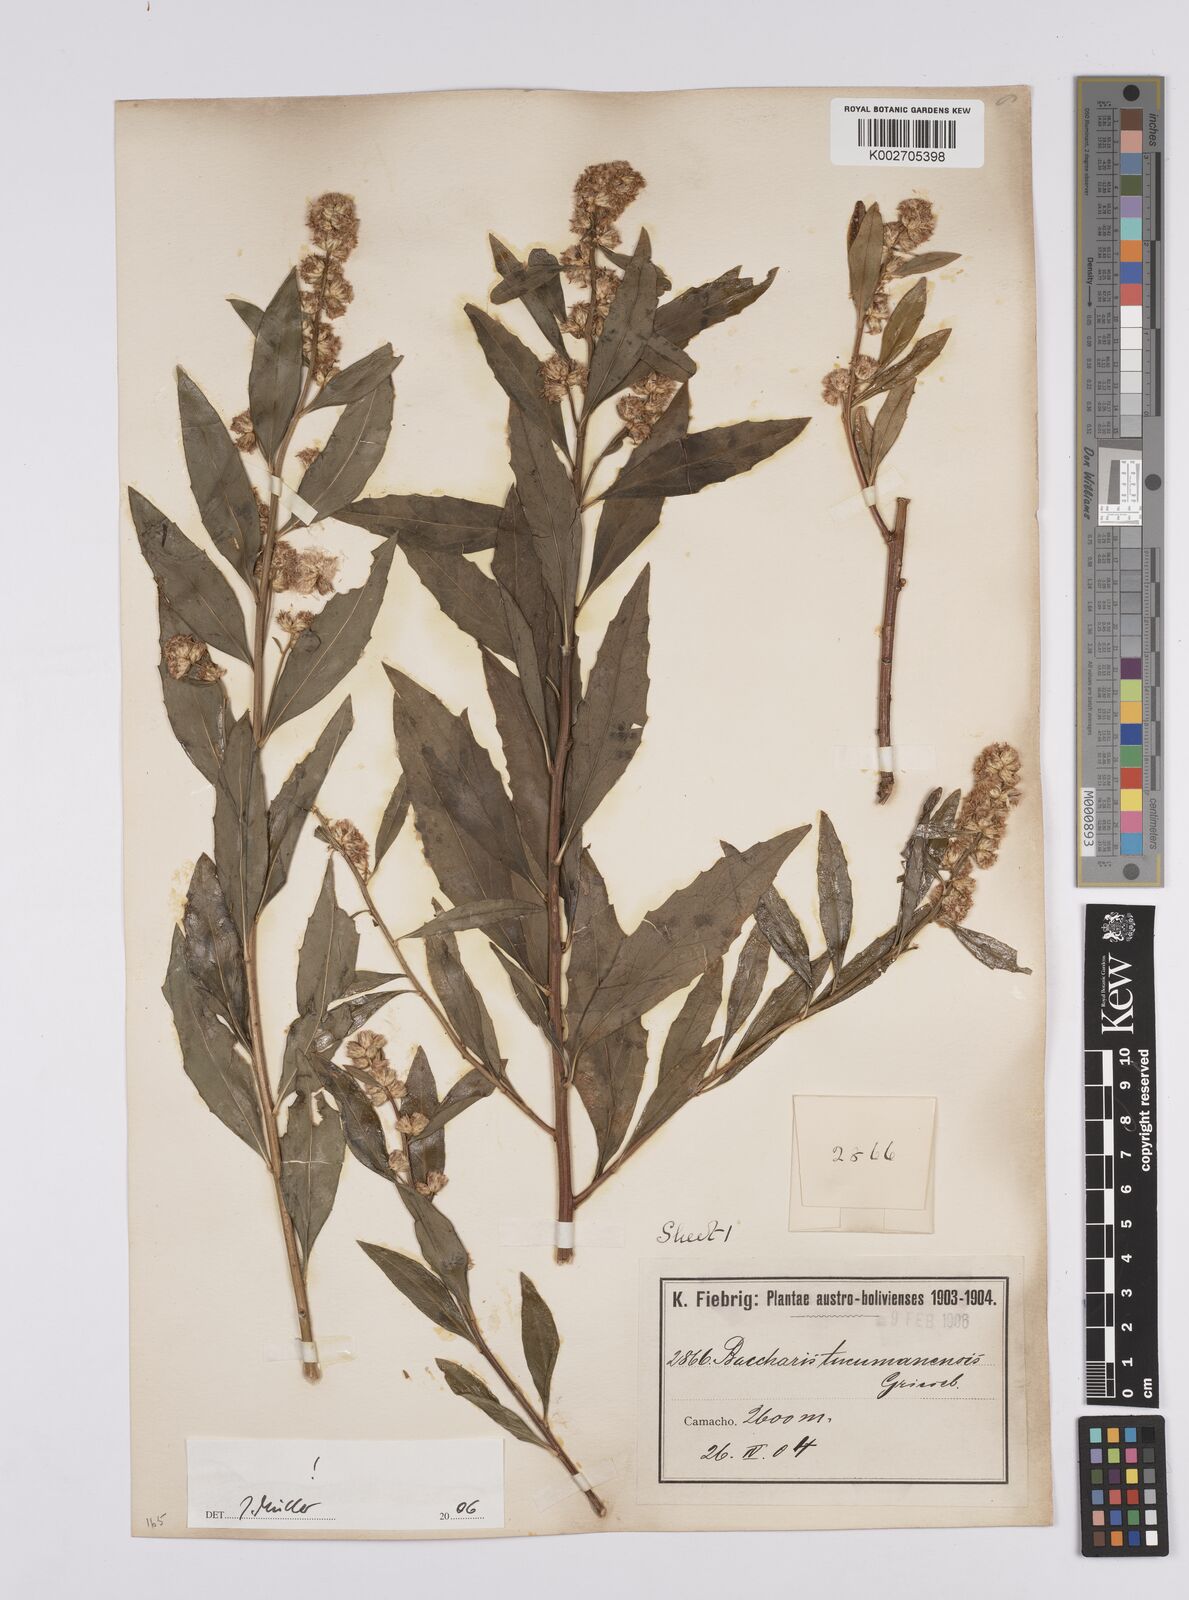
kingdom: Plantae
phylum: Tracheophyta
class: Magnoliopsida
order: Asterales
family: Asteraceae
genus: Baccharis
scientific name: Baccharis tucumanensis
